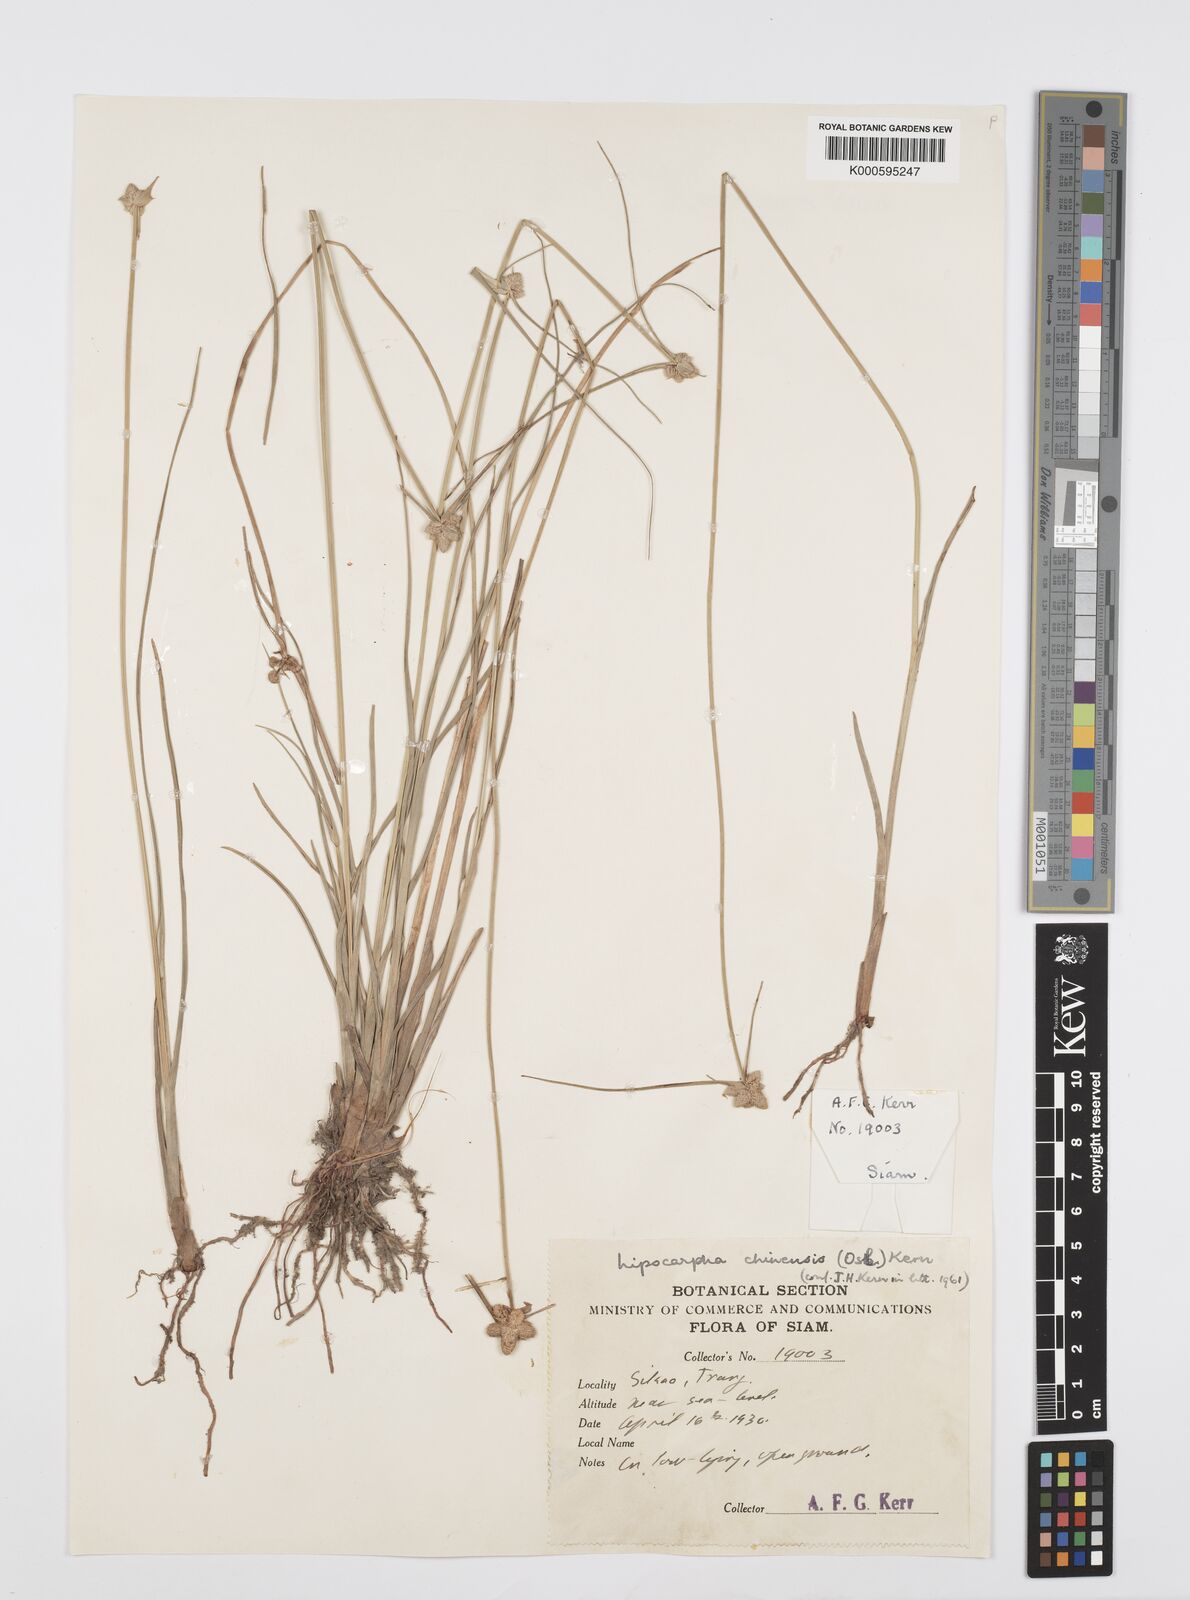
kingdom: Plantae
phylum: Tracheophyta
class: Liliopsida
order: Poales
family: Cyperaceae
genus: Cyperus
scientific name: Cyperus albescens
